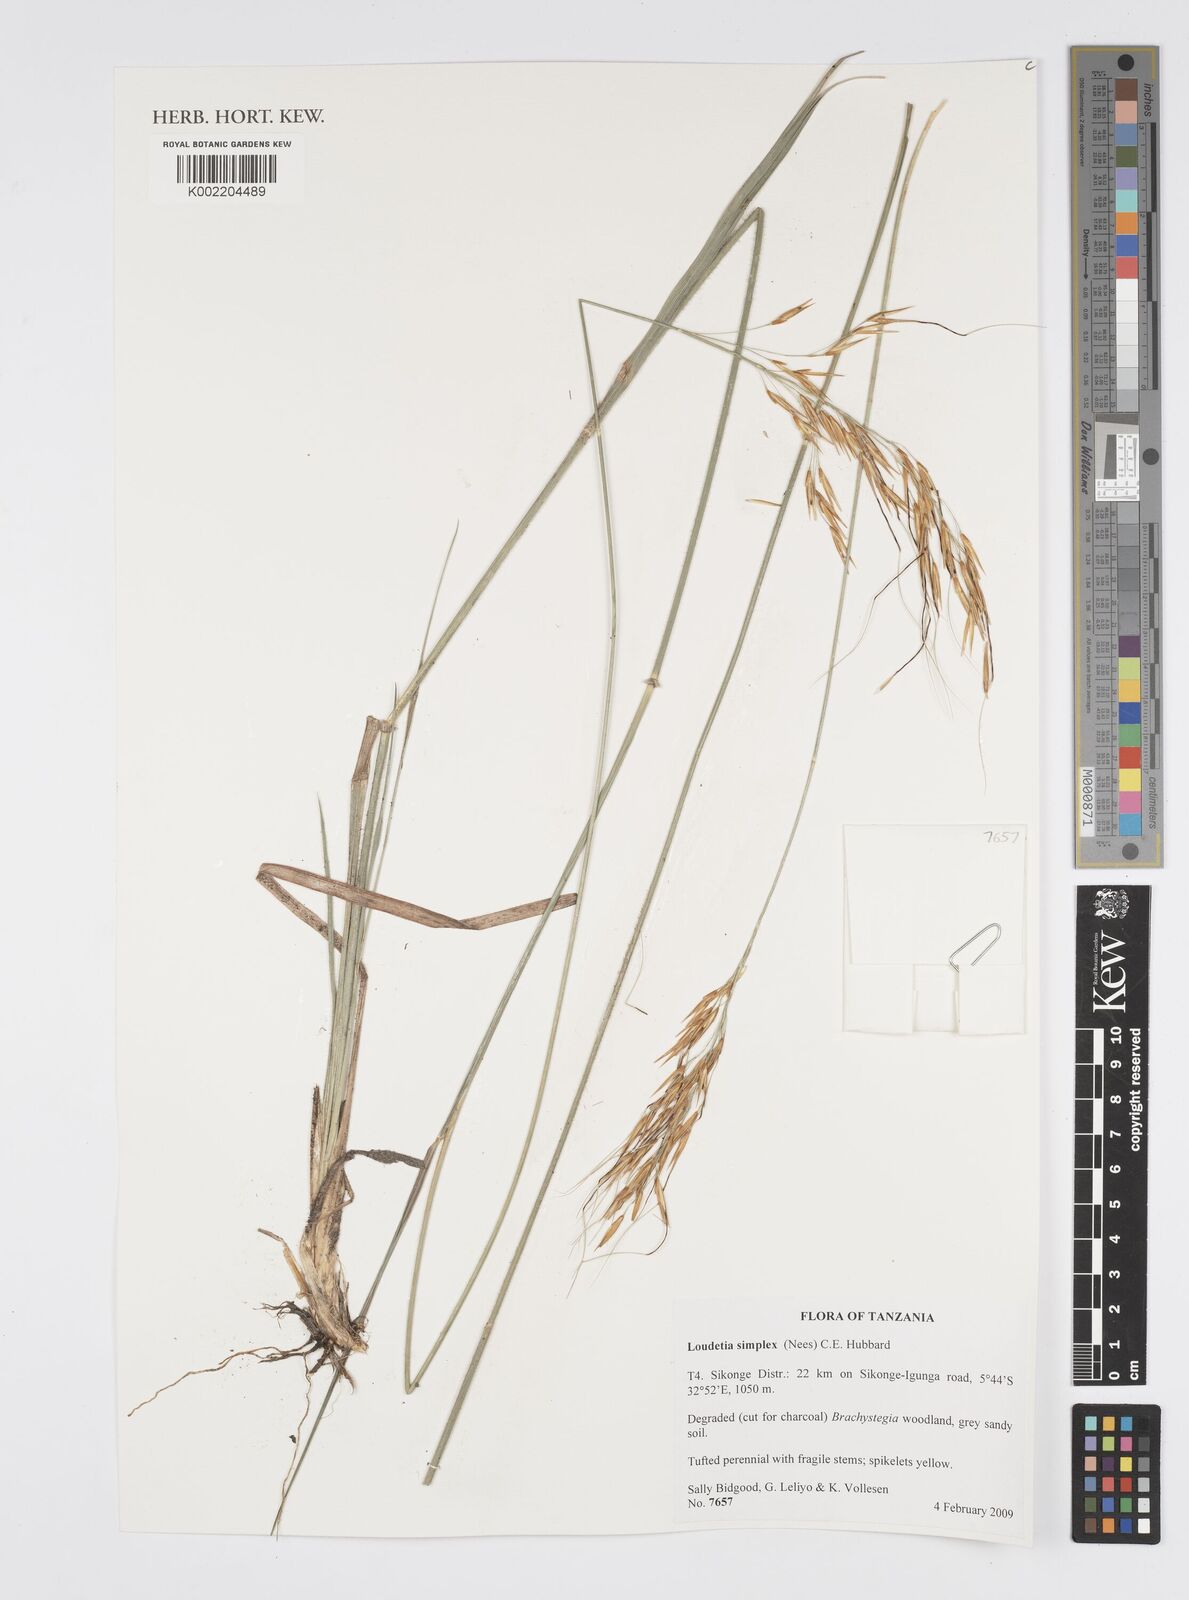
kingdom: Plantae
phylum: Tracheophyta
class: Liliopsida
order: Poales
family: Poaceae
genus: Loudetia
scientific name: Loudetia simplex
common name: Common russet grass
